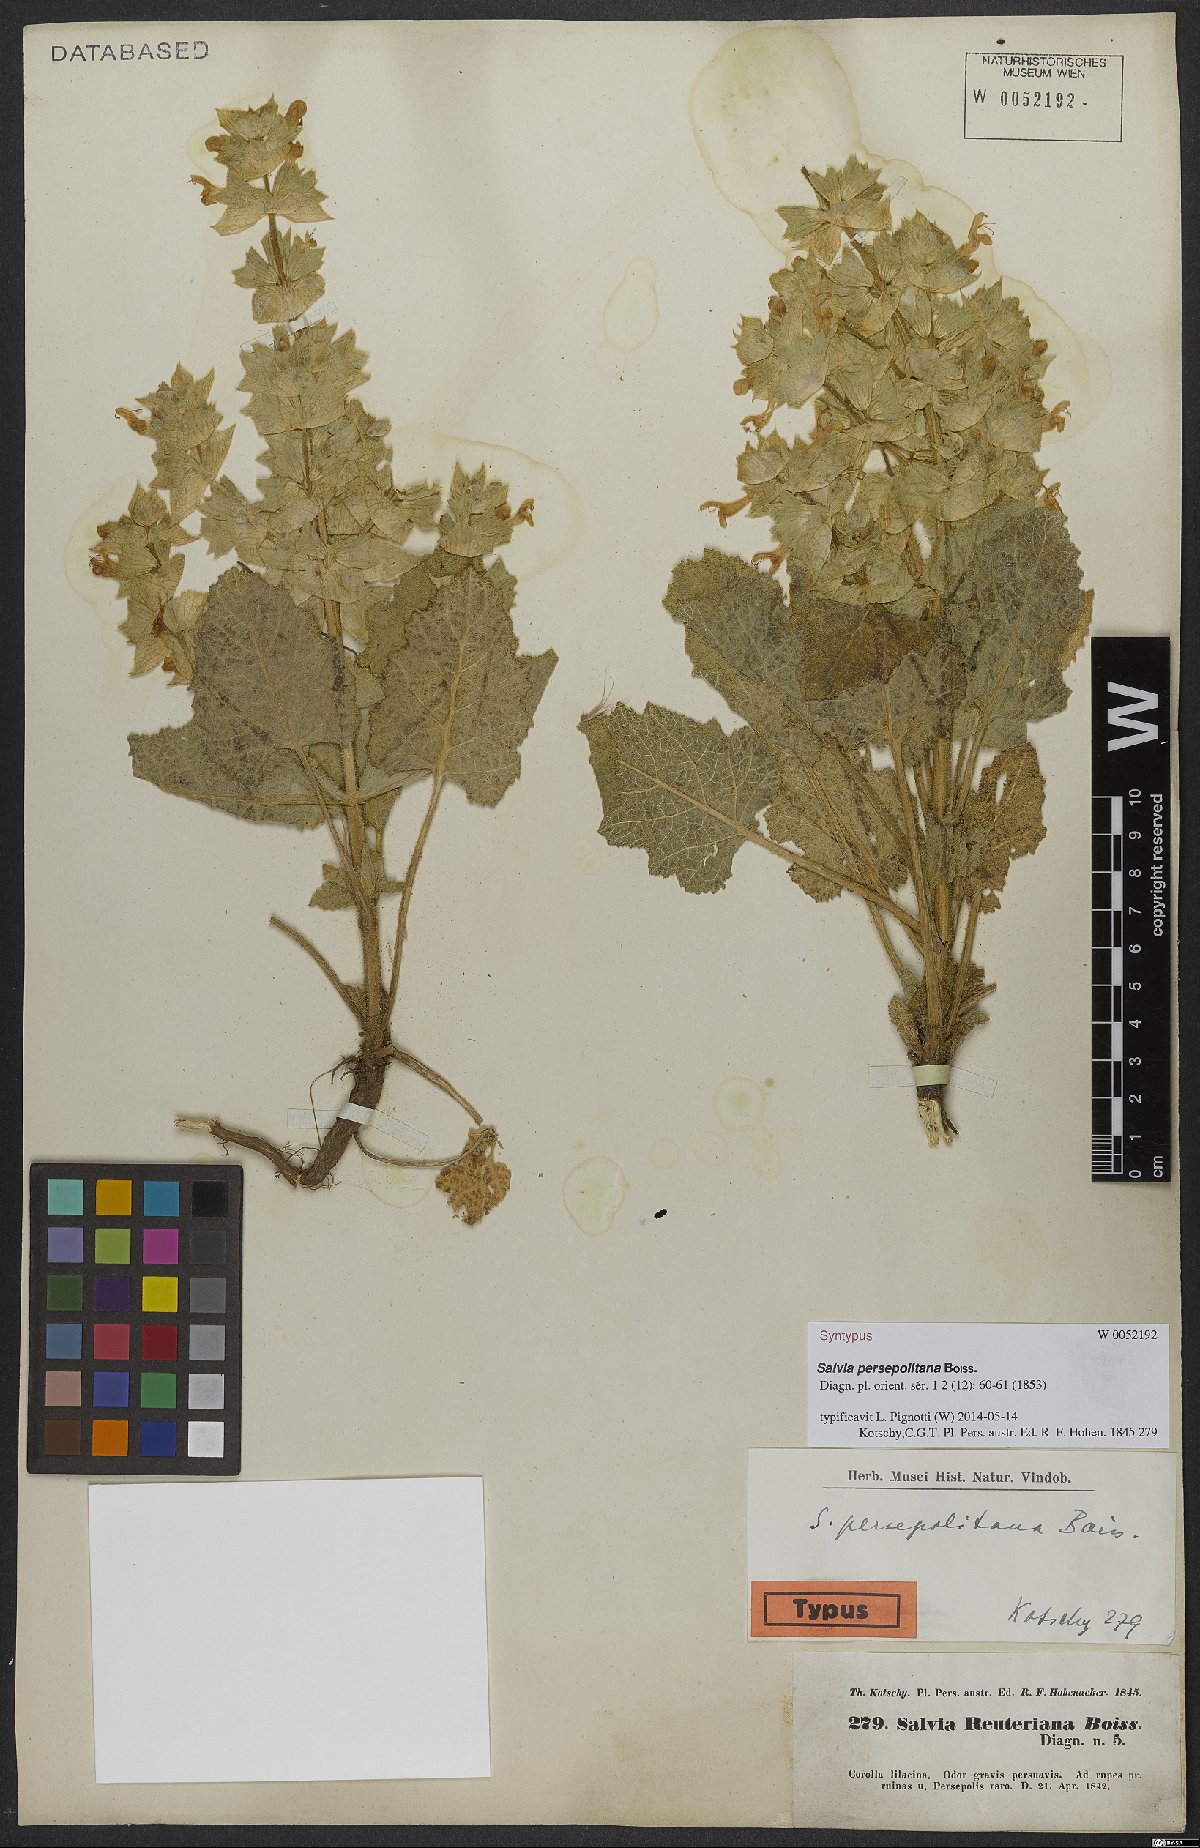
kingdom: Plantae
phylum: Tracheophyta
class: Magnoliopsida
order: Lamiales
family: Lamiaceae
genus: Salvia
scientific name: Salvia persepolitana
